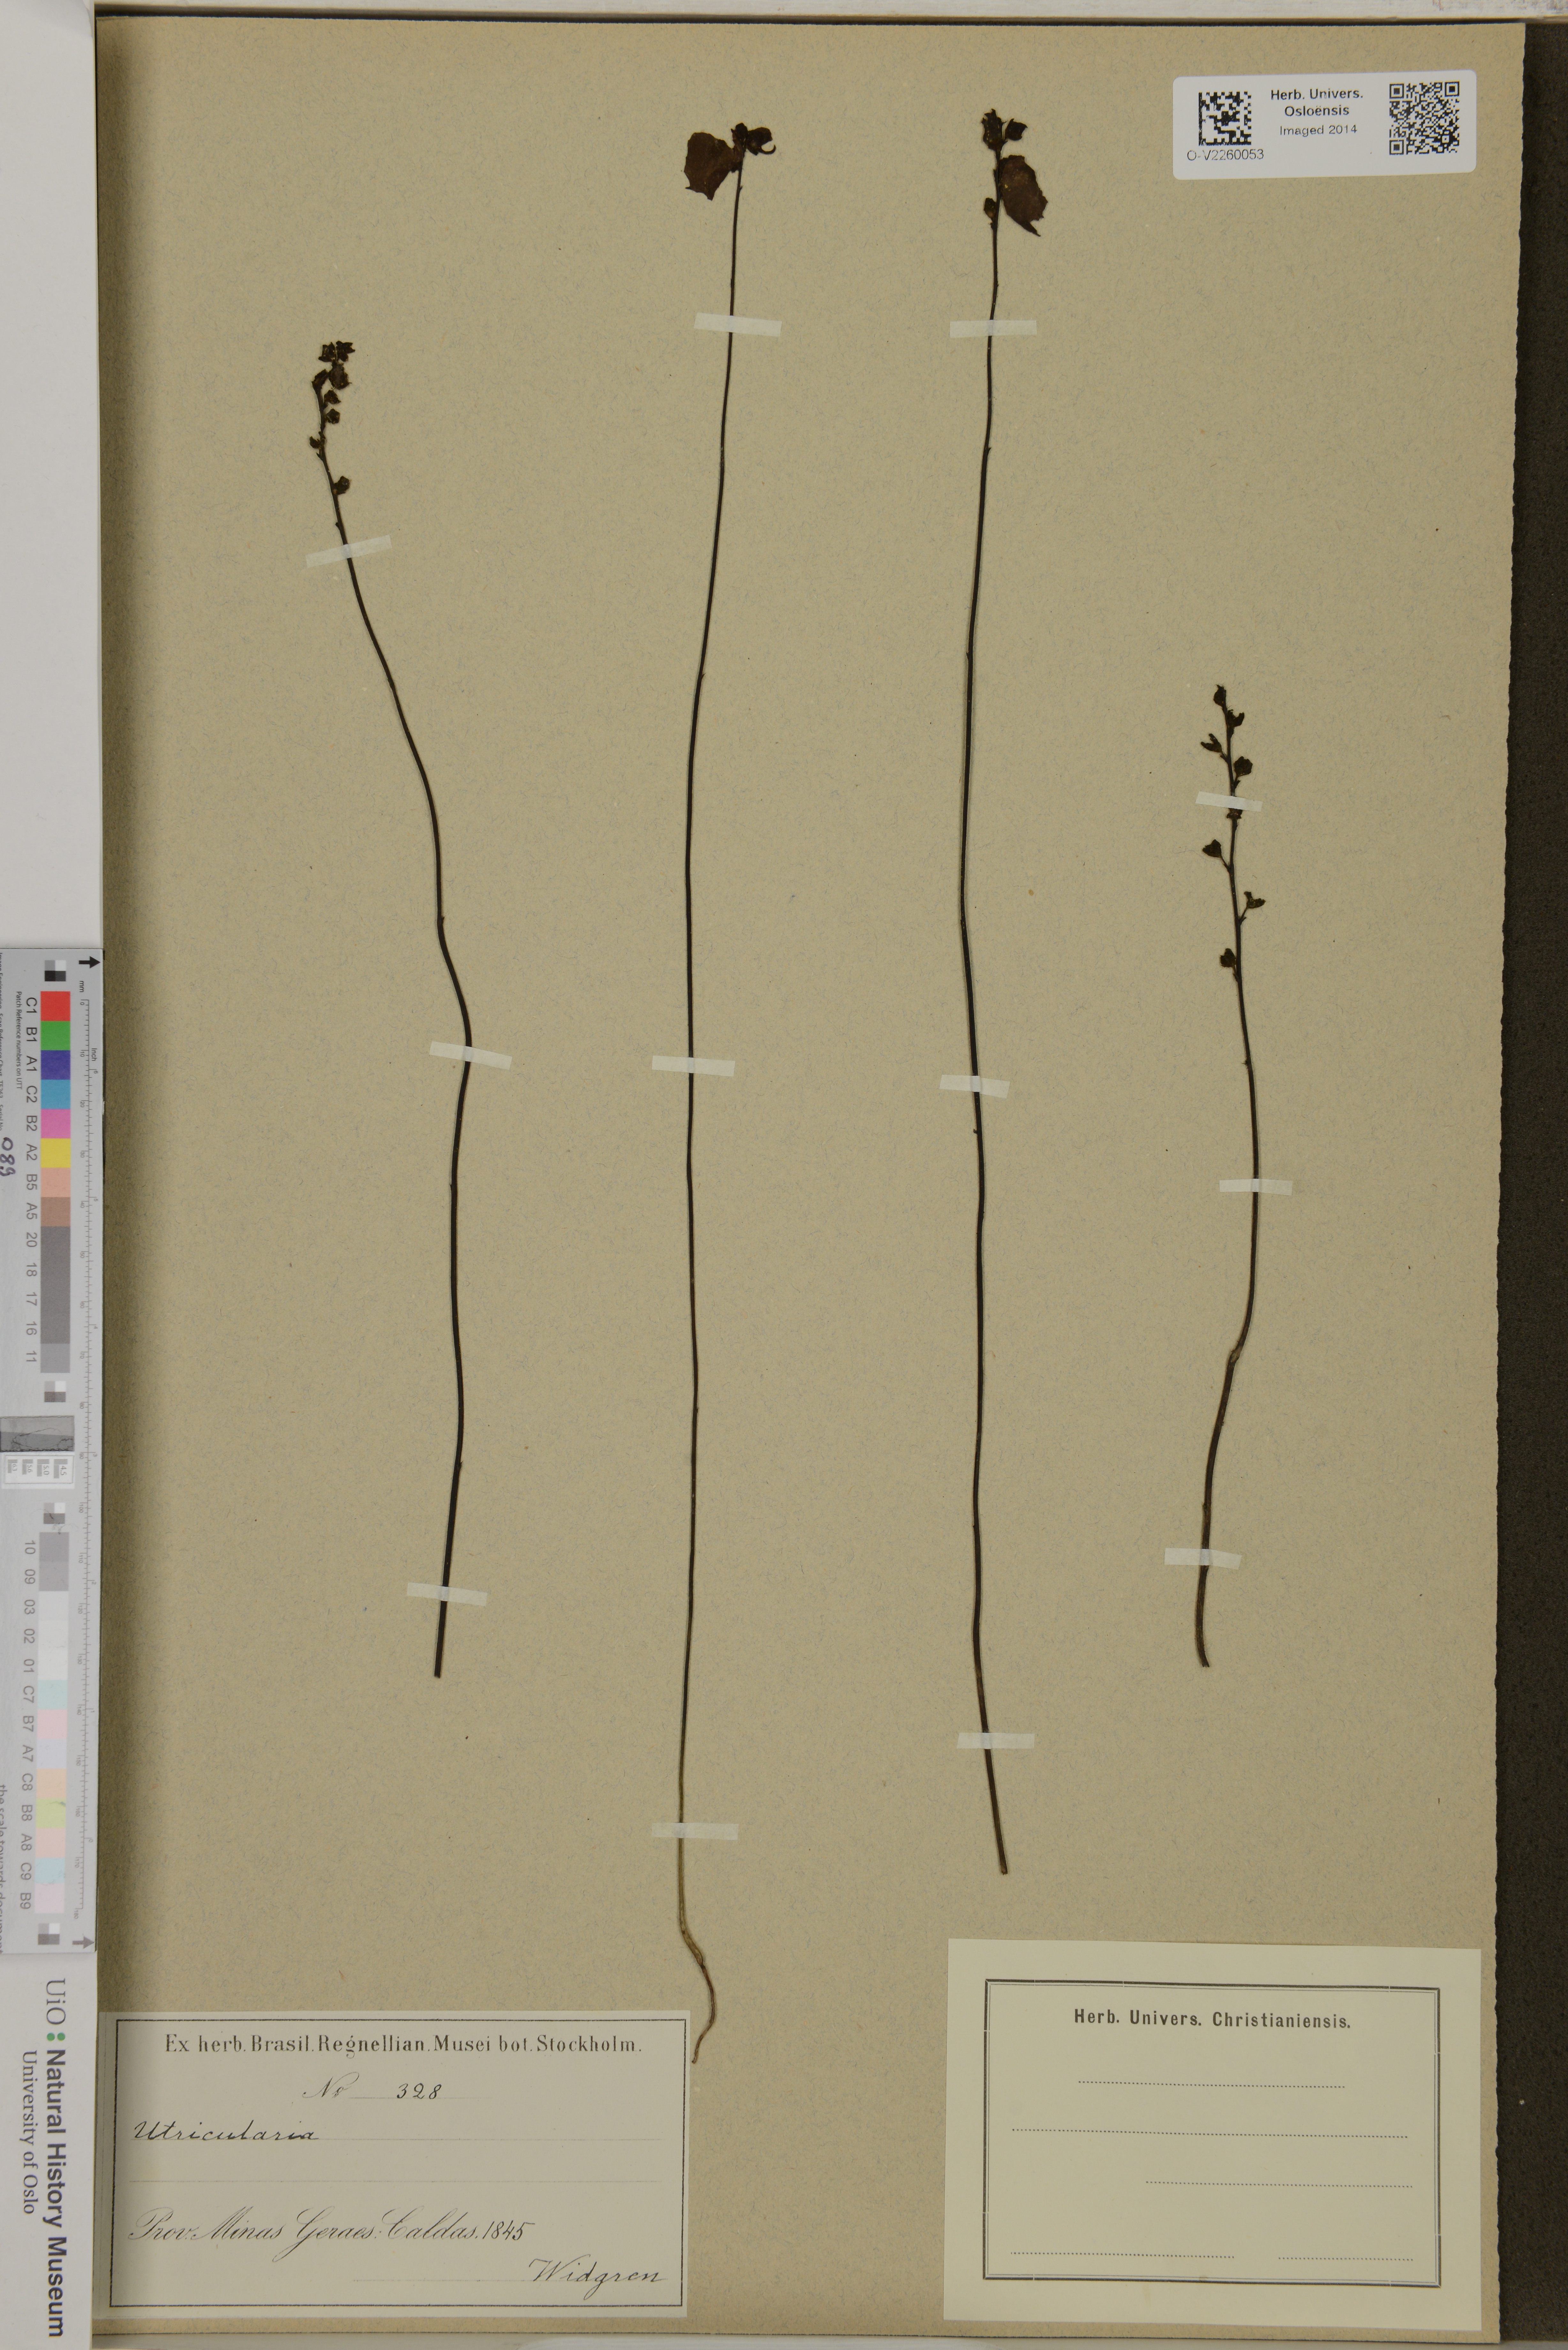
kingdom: Plantae
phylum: Tracheophyta
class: Magnoliopsida
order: Lamiales
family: Lentibulariaceae
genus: Utricularia
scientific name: Utricularia
